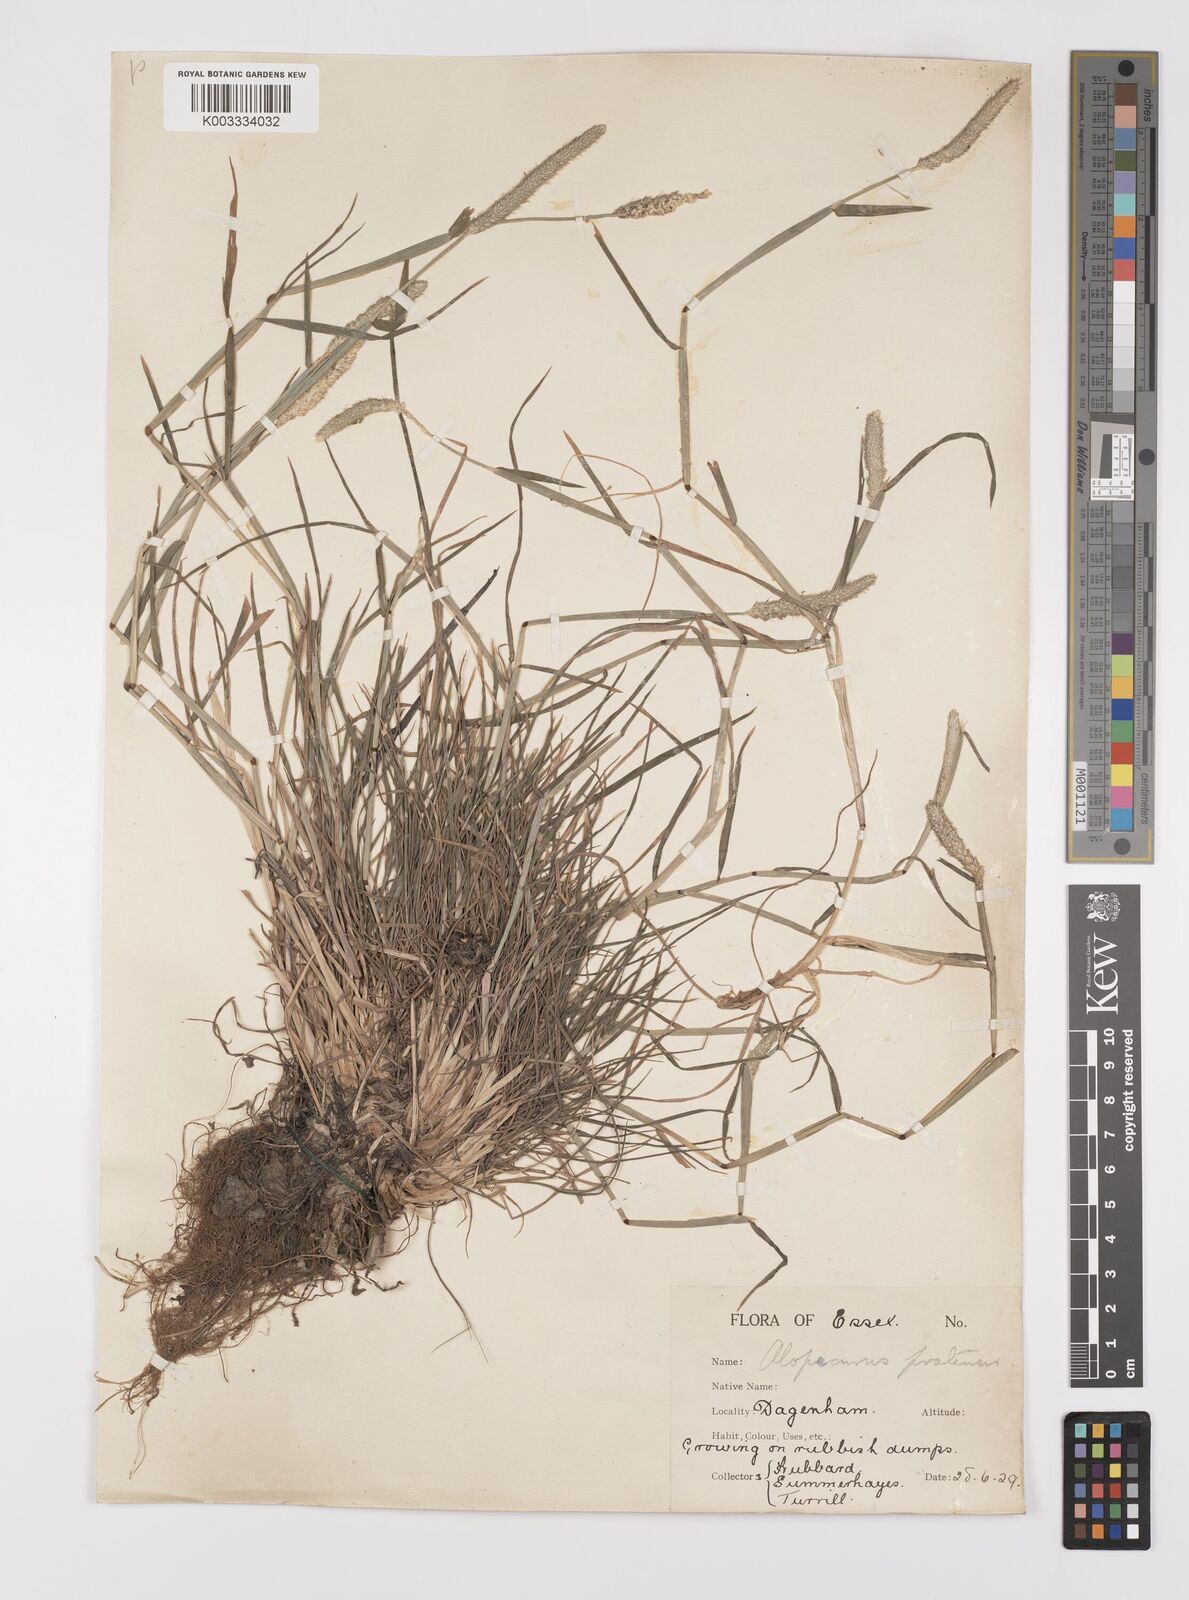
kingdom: Plantae
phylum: Tracheophyta
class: Liliopsida
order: Poales
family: Poaceae
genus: Alopecurus
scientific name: Alopecurus geniculatus
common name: Water foxtail
